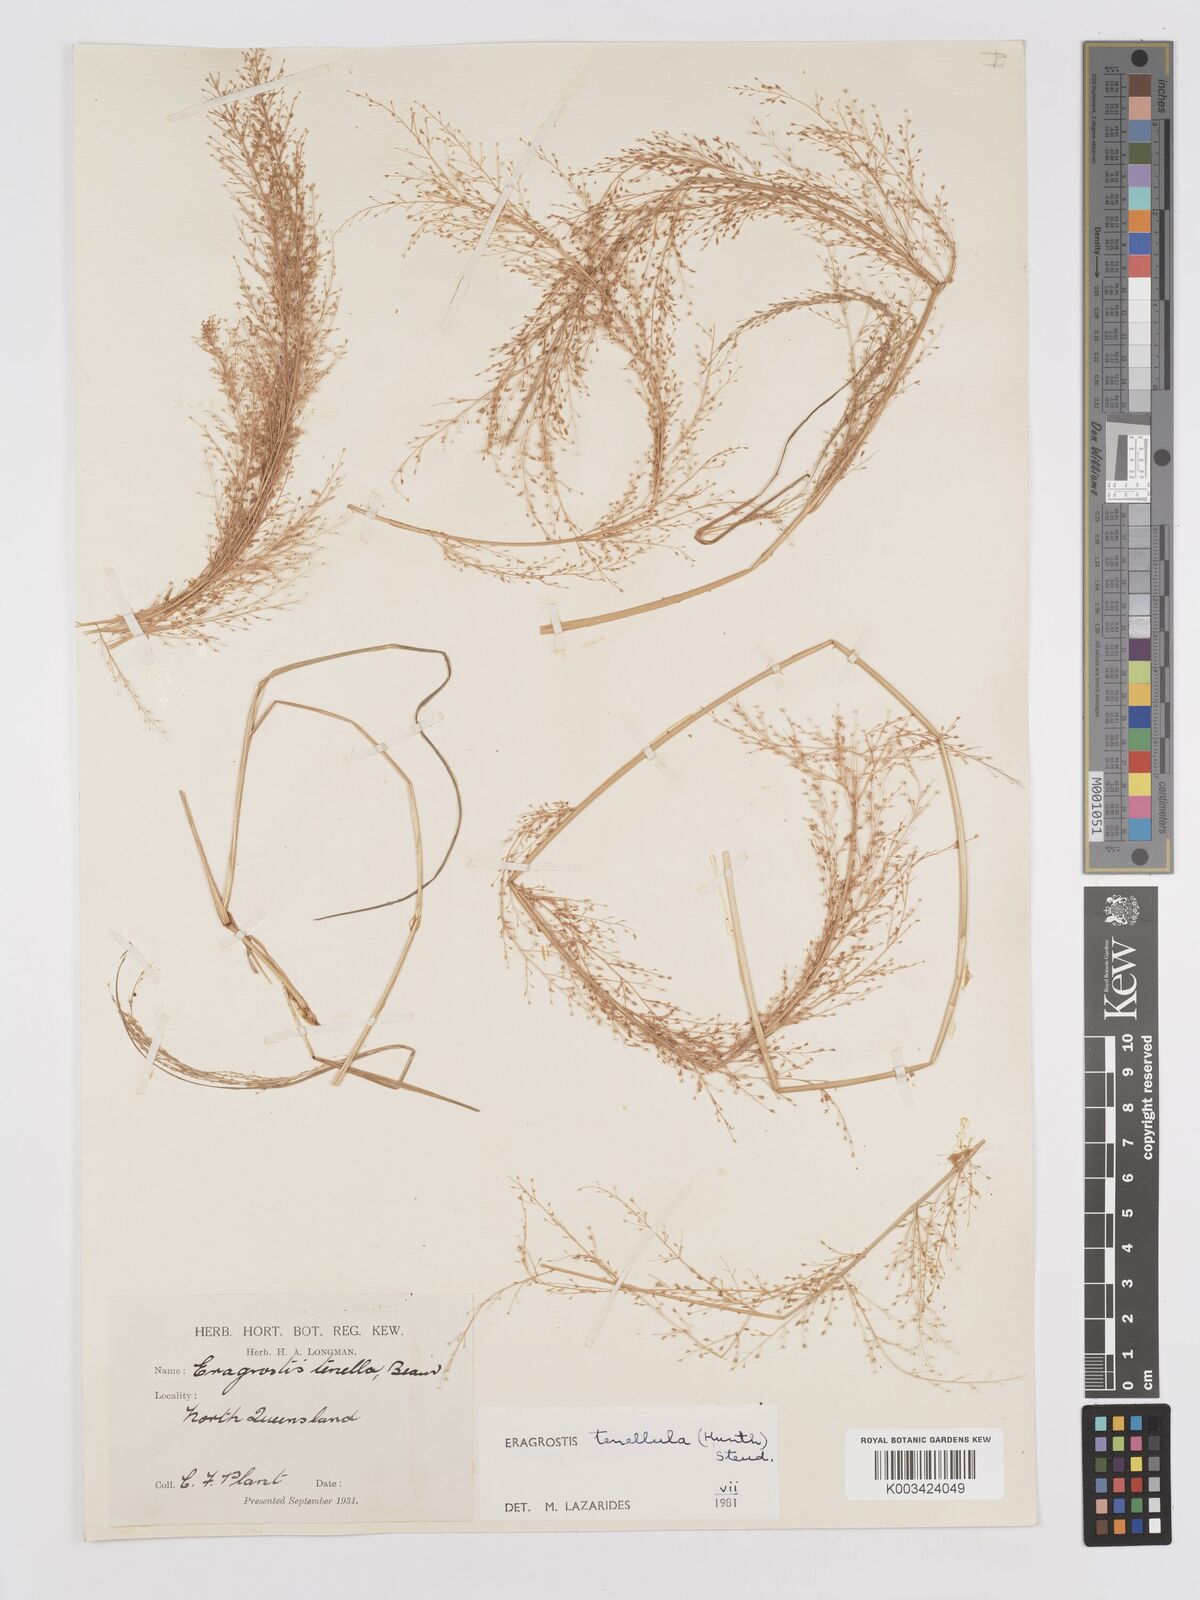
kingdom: Plantae
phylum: Tracheophyta
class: Liliopsida
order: Poales
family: Poaceae
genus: Eragrostis
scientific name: Eragrostis tenellula
